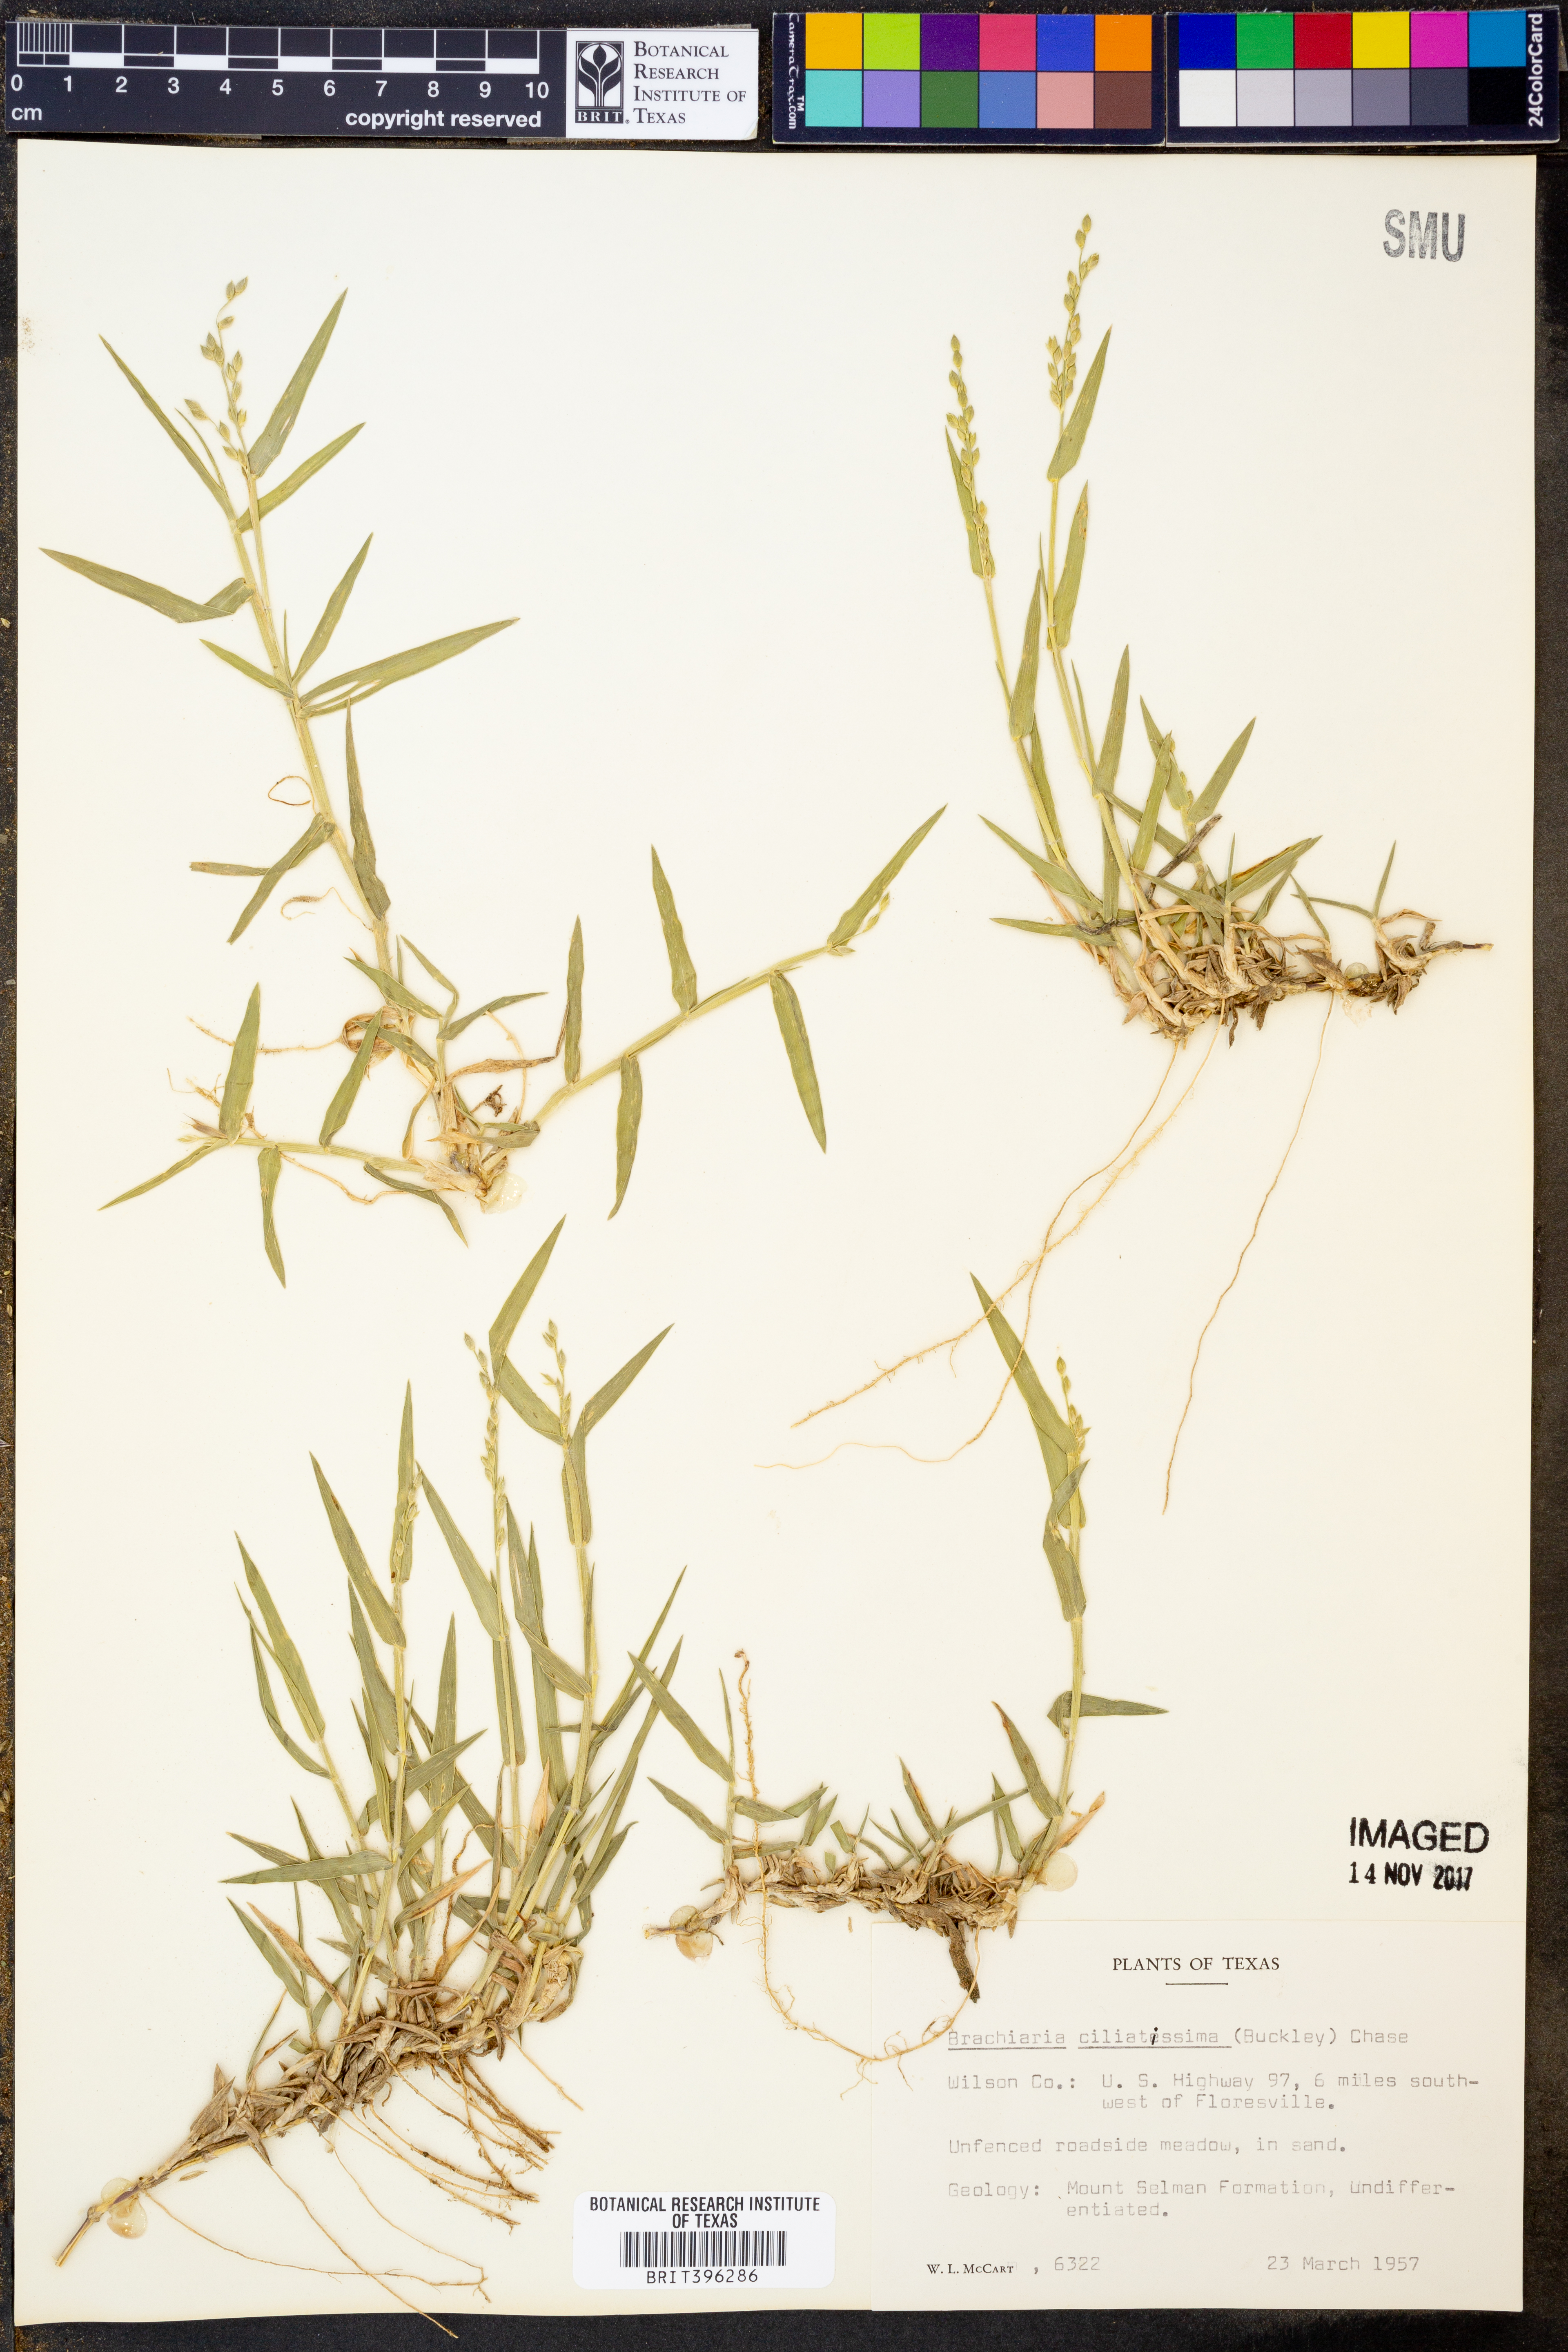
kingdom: Plantae
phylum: Tracheophyta
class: Liliopsida
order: Poales
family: Poaceae
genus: Urochloa
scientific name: Urochloa ciliatissima
